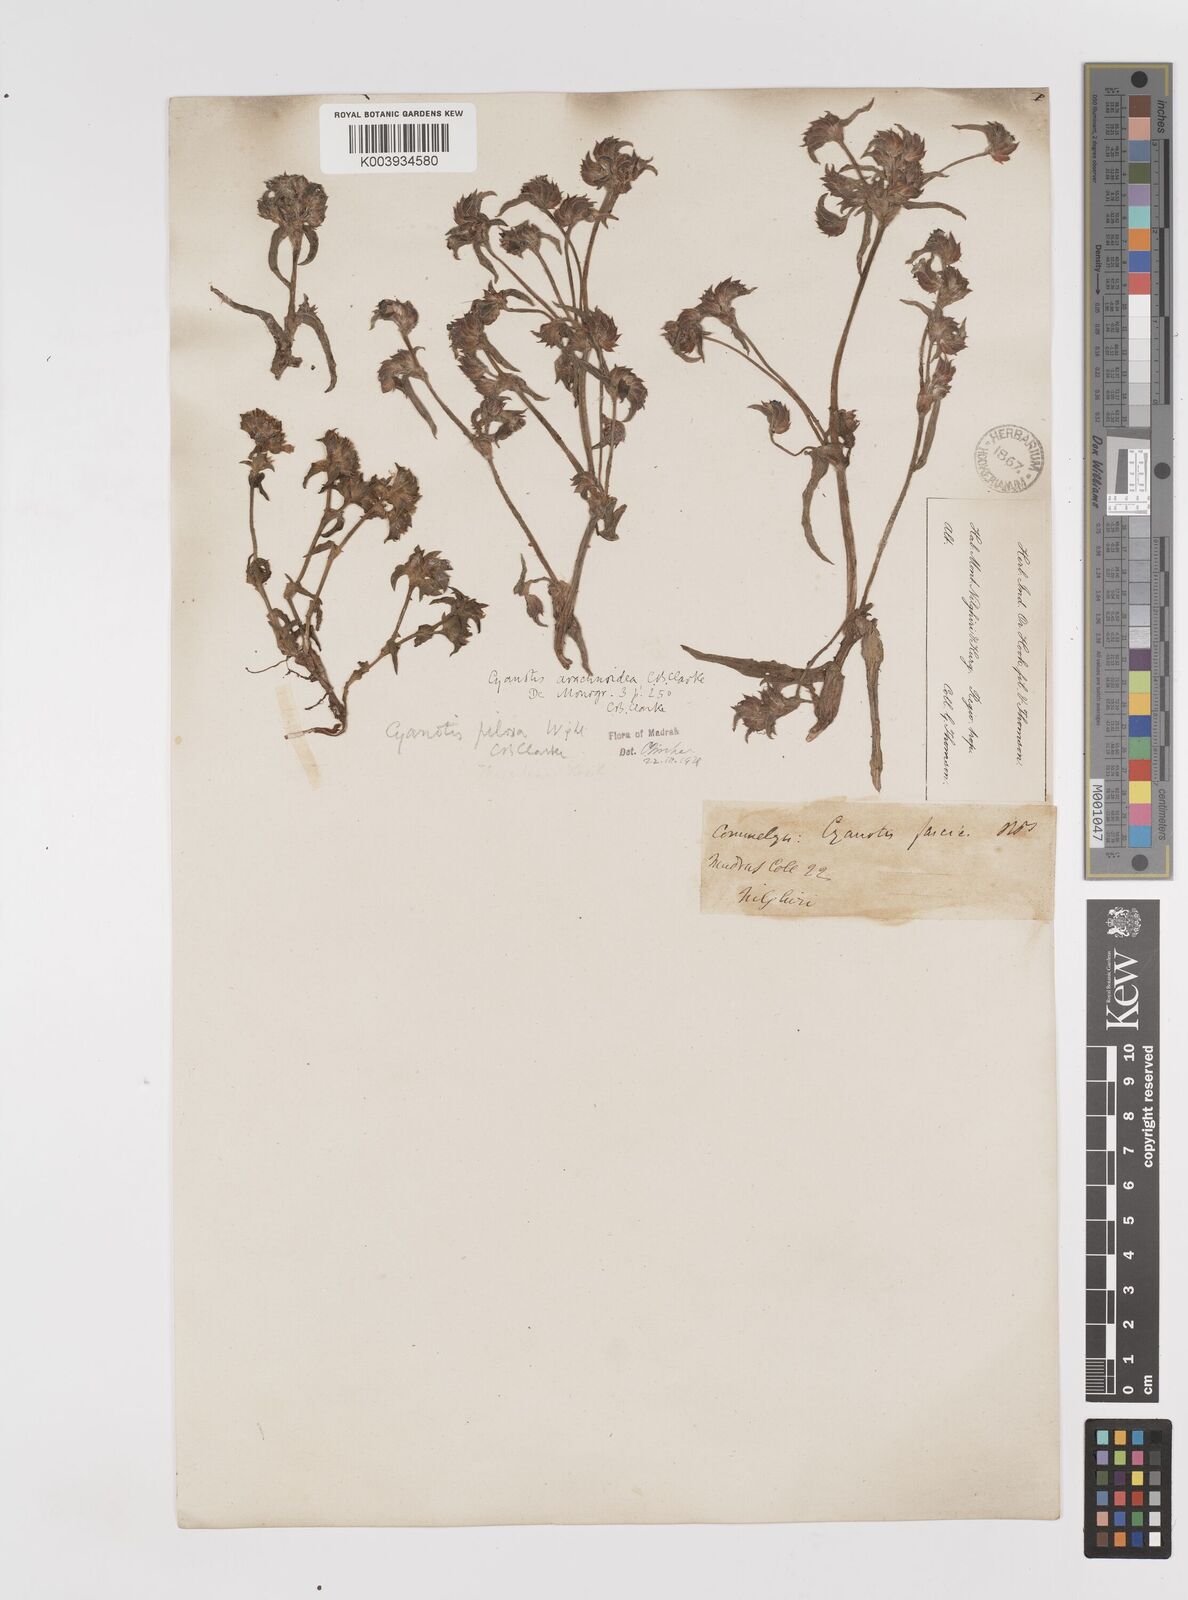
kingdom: Plantae
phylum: Tracheophyta
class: Liliopsida
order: Commelinales
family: Commelinaceae
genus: Cyanotis
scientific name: Cyanotis arachnoidea
